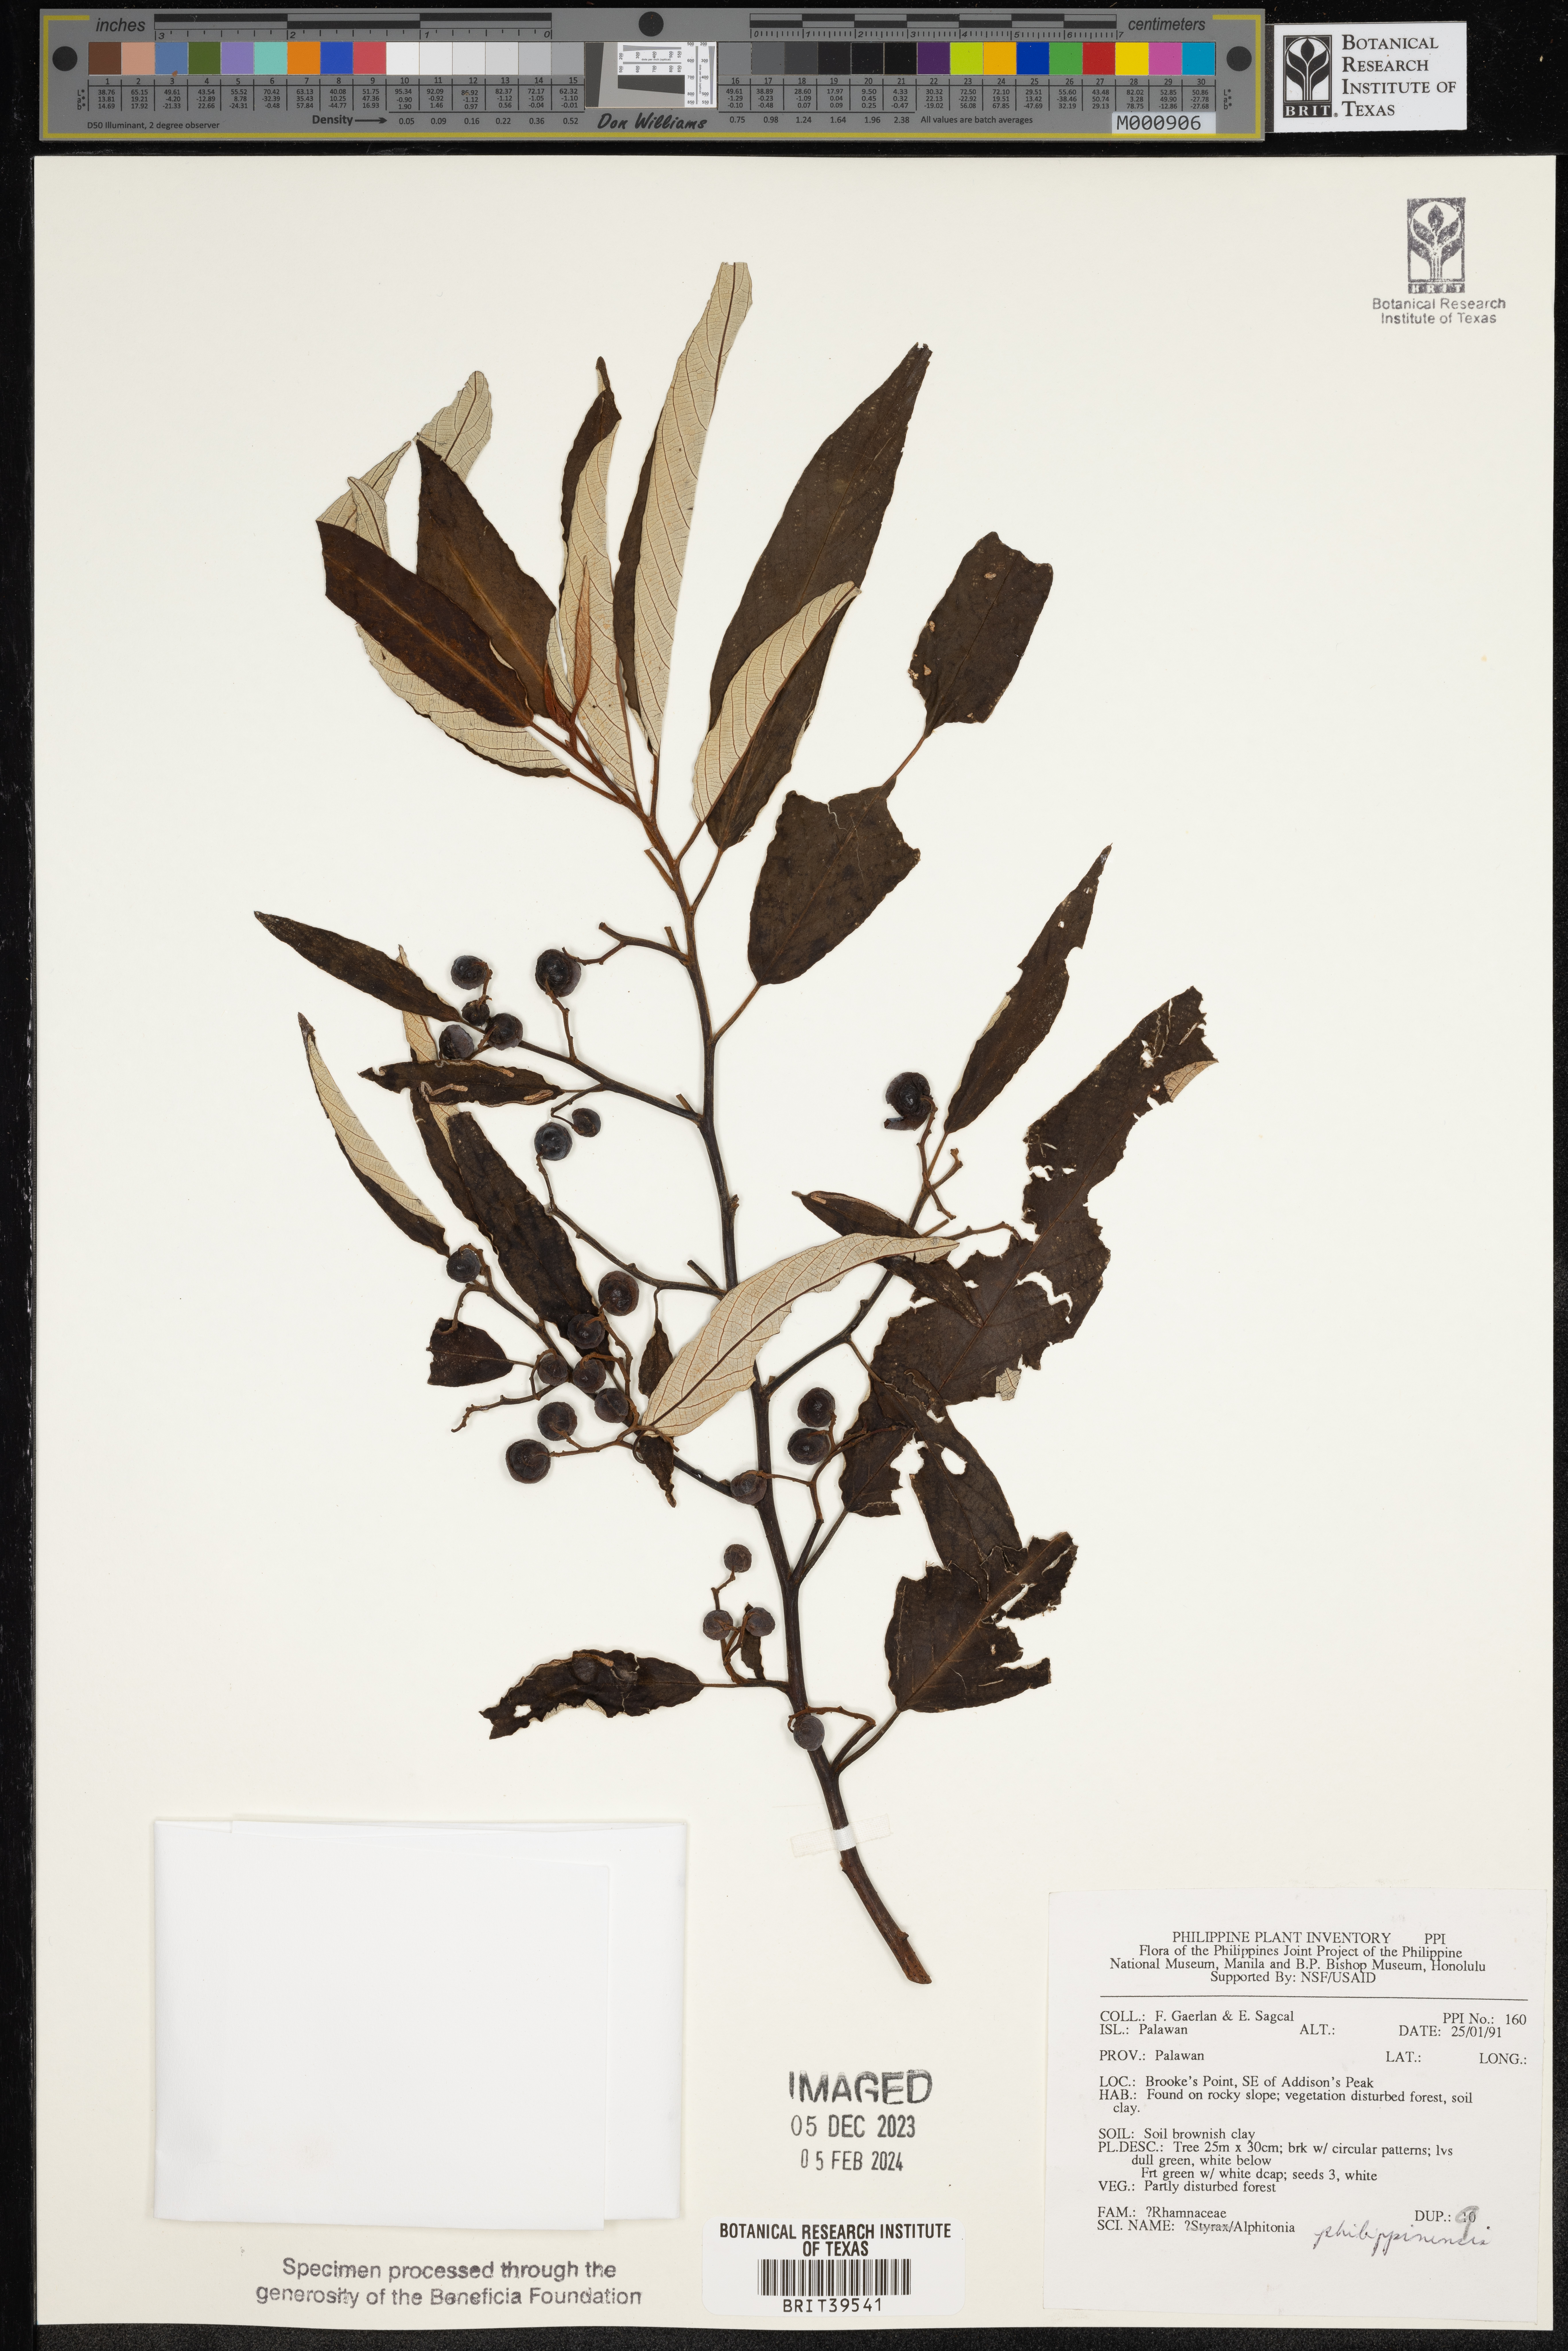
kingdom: Plantae
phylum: Tracheophyta
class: Magnoliopsida
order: Rosales
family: Rhamnaceae
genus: Alphitonia
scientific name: Alphitonia incana
